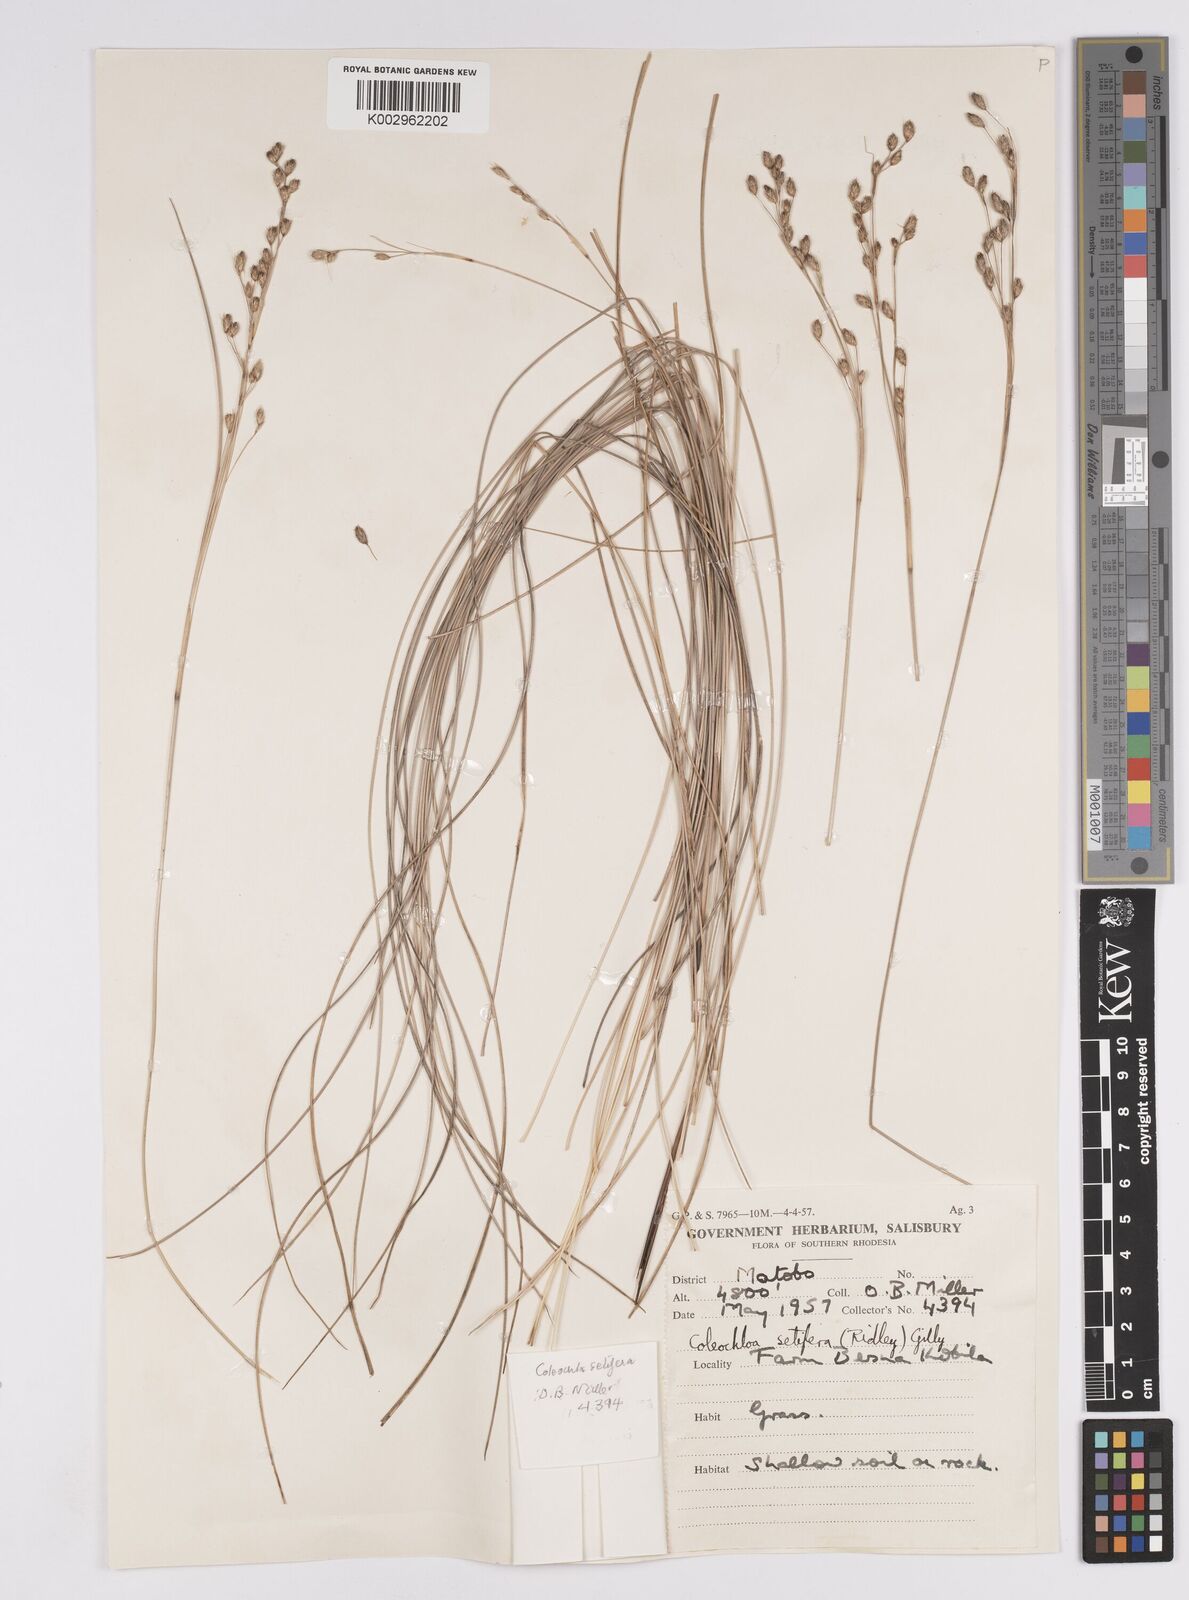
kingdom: Plantae
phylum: Tracheophyta
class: Liliopsida
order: Poales
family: Cyperaceae
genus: Coleochloa
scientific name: Coleochloa setifera
